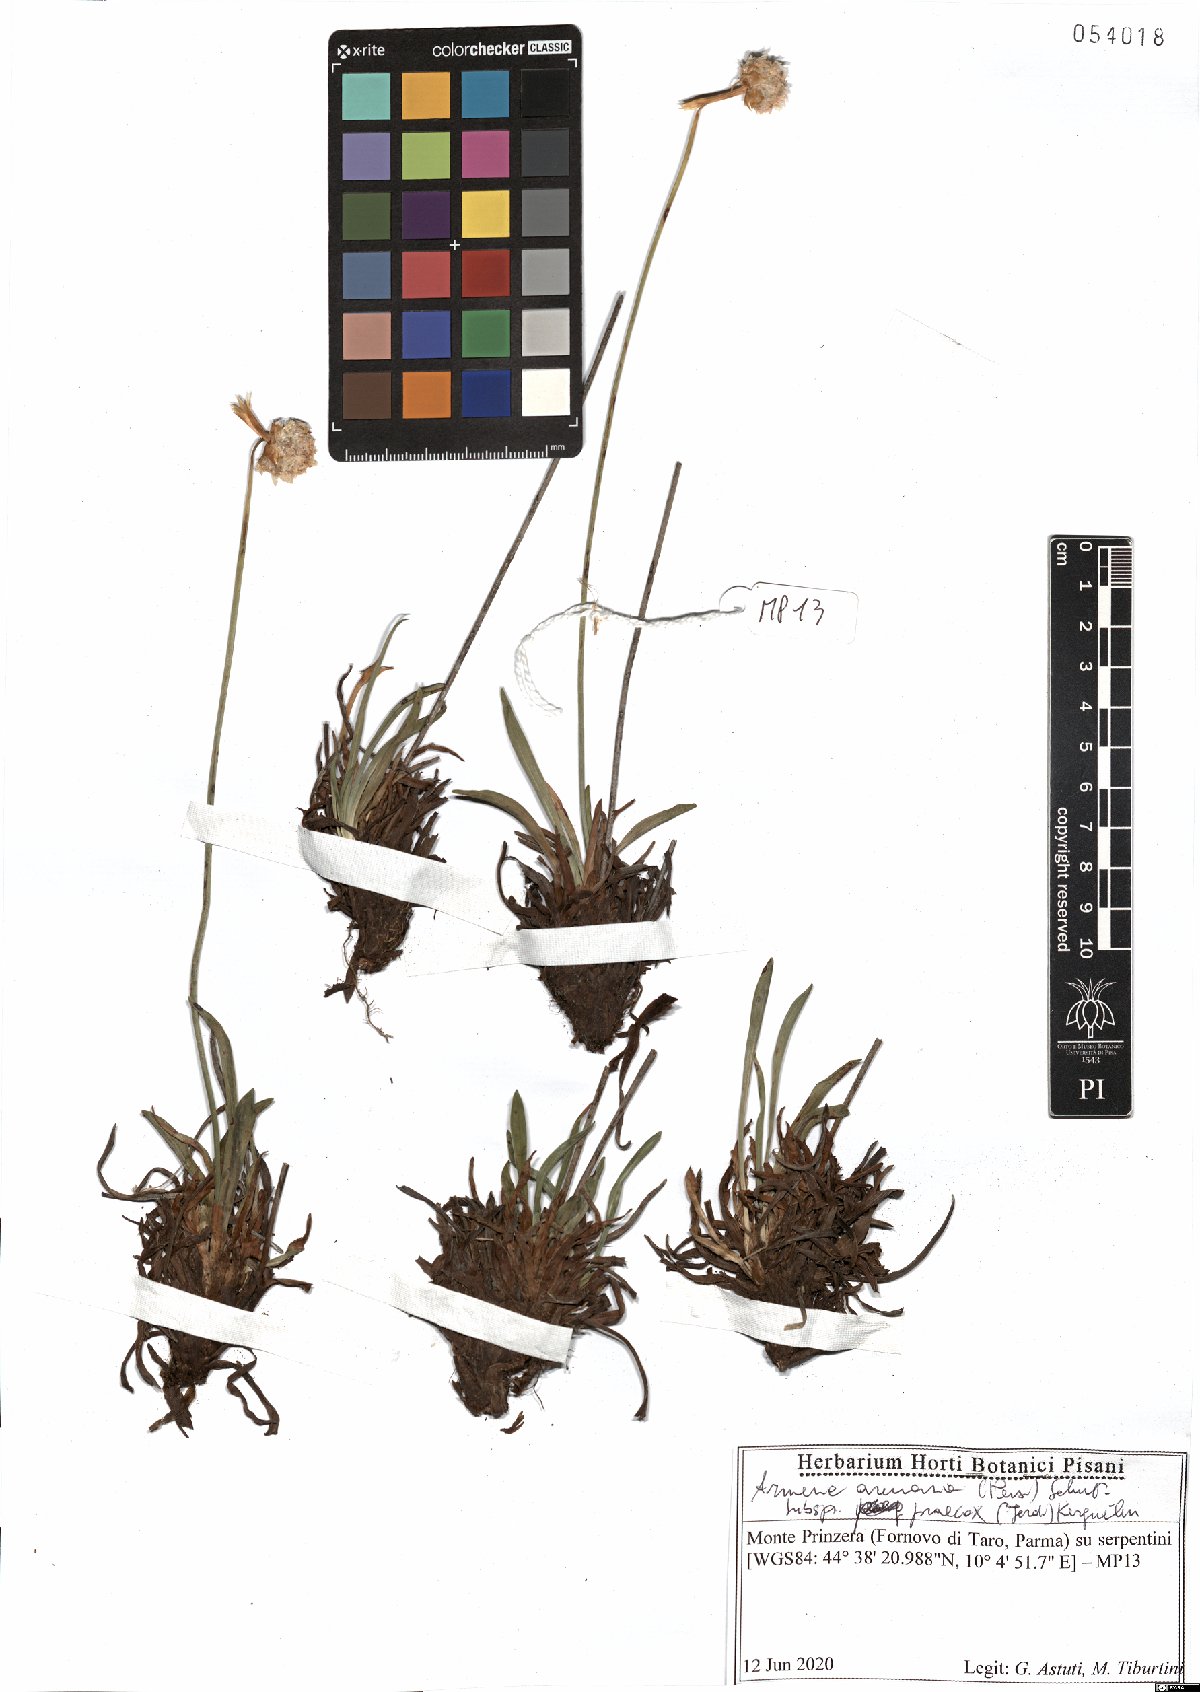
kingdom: Plantae
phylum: Tracheophyta
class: Magnoliopsida
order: Caryophyllales
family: Plumbaginaceae
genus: Armeria
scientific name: Armeria arenaria
